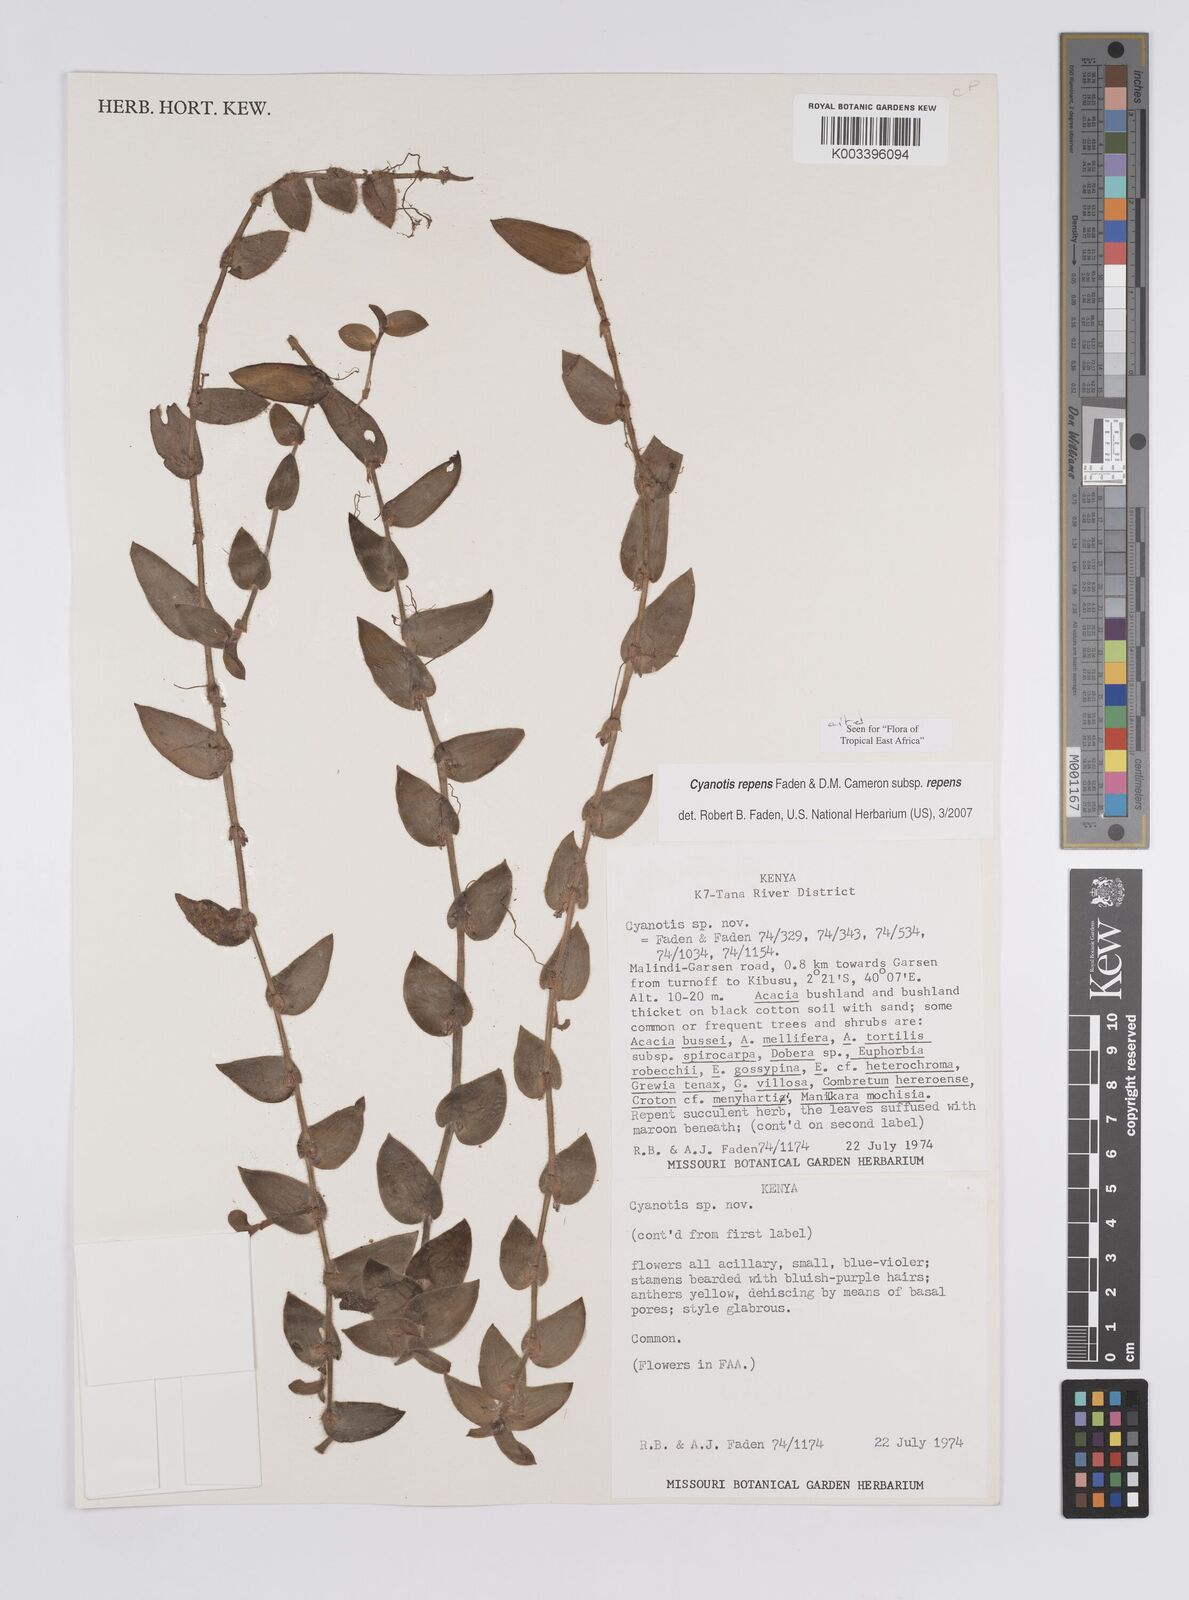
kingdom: Plantae
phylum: Tracheophyta
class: Liliopsida
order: Commelinales
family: Commelinaceae
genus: Cyanotis
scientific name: Cyanotis repens
